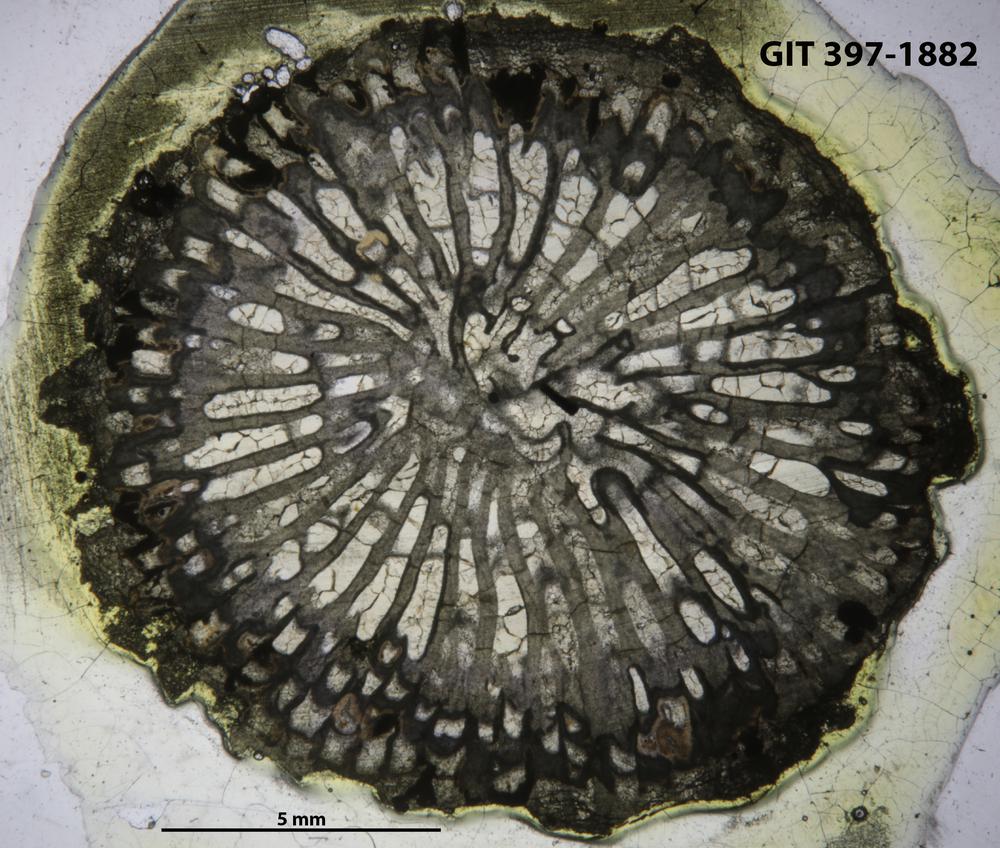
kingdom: Animalia
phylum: Cnidaria
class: Anthozoa
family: Paliphyllidae
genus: Paliphyllum
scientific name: Paliphyllum soshkinae
